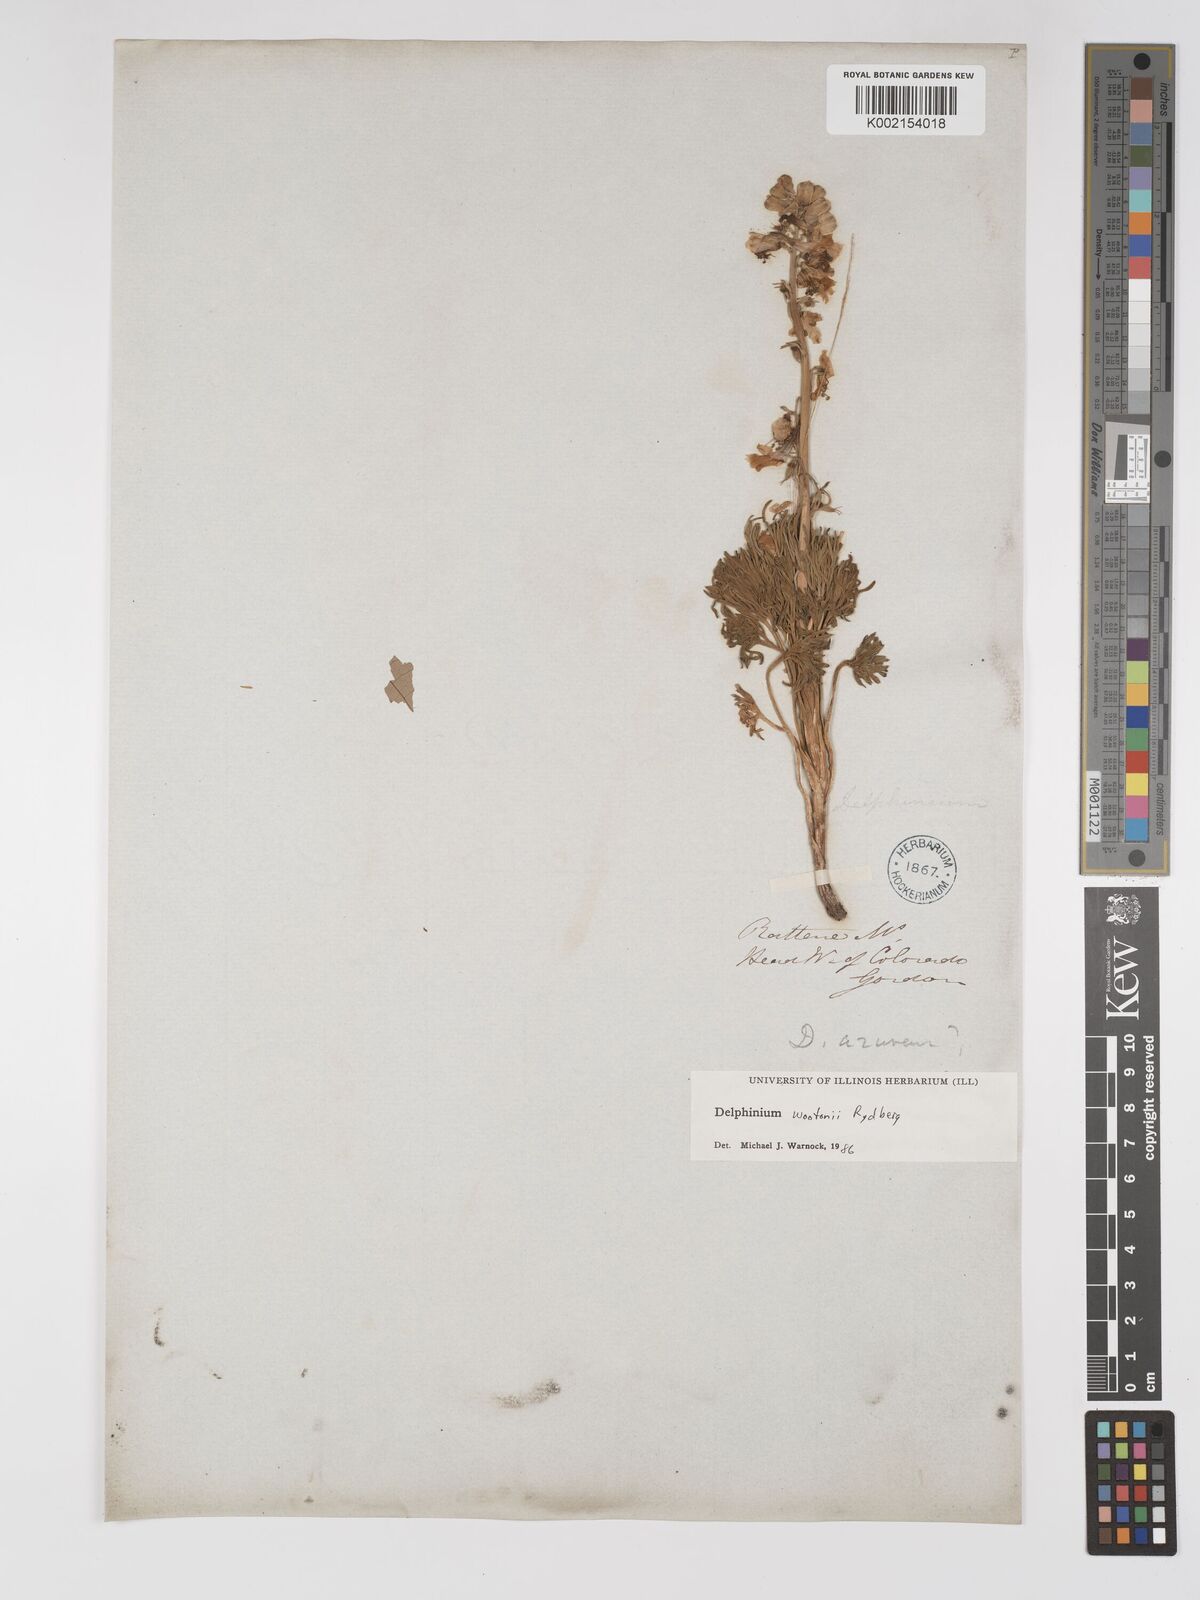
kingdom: Plantae
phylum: Tracheophyta
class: Magnoliopsida
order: Ranunculales
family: Ranunculaceae
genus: Delphinium
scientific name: Delphinium wootonii
